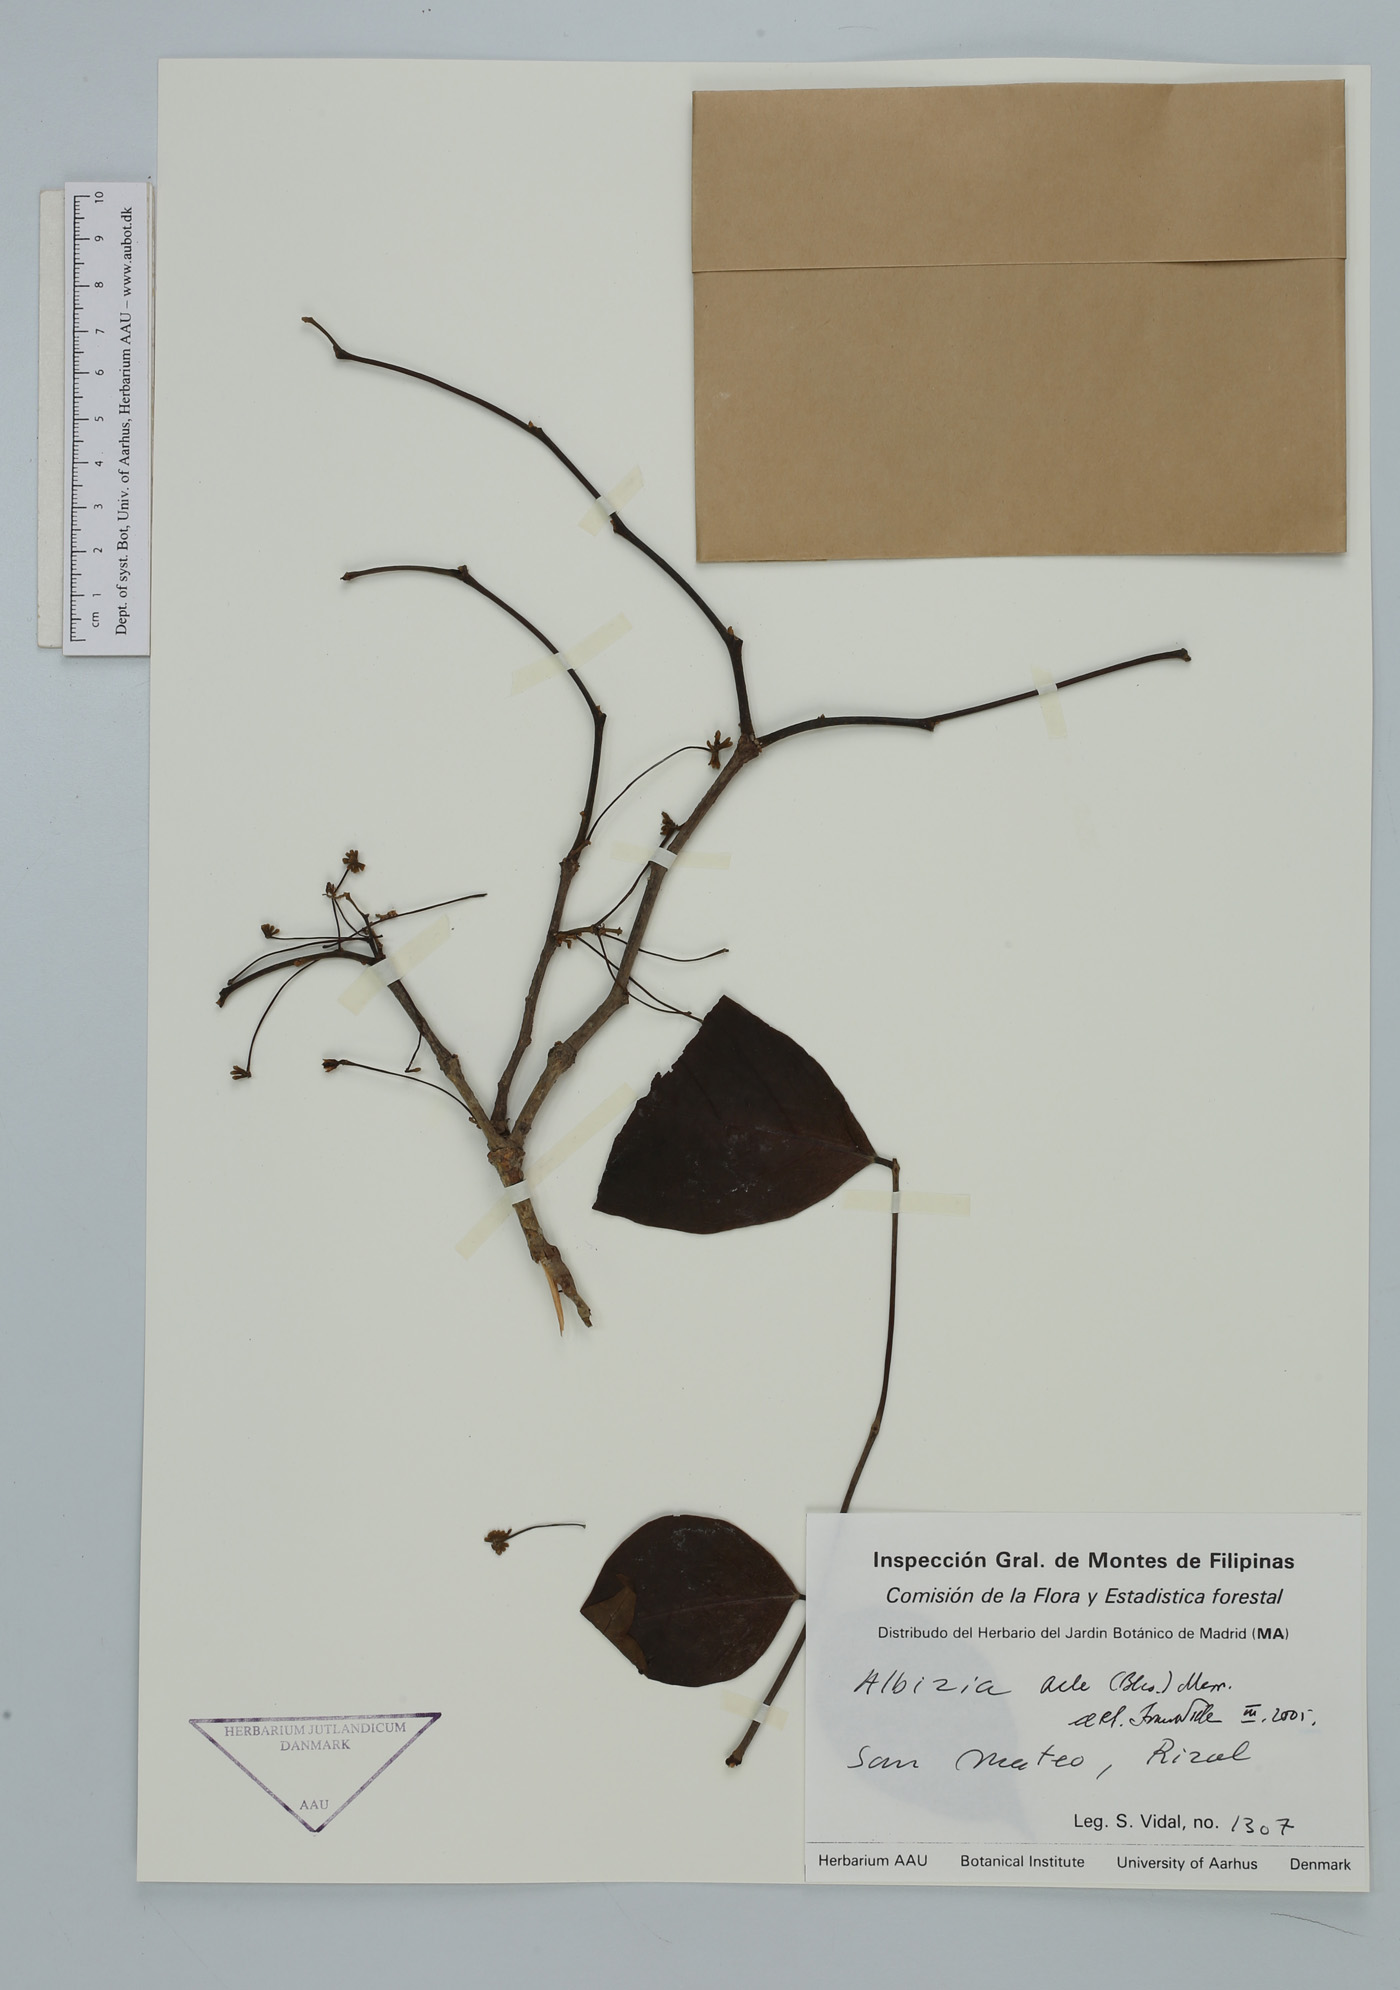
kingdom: Plantae
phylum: Tracheophyta
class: Magnoliopsida
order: Fabales
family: Fabaceae
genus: Albizia
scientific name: Albizia acle
